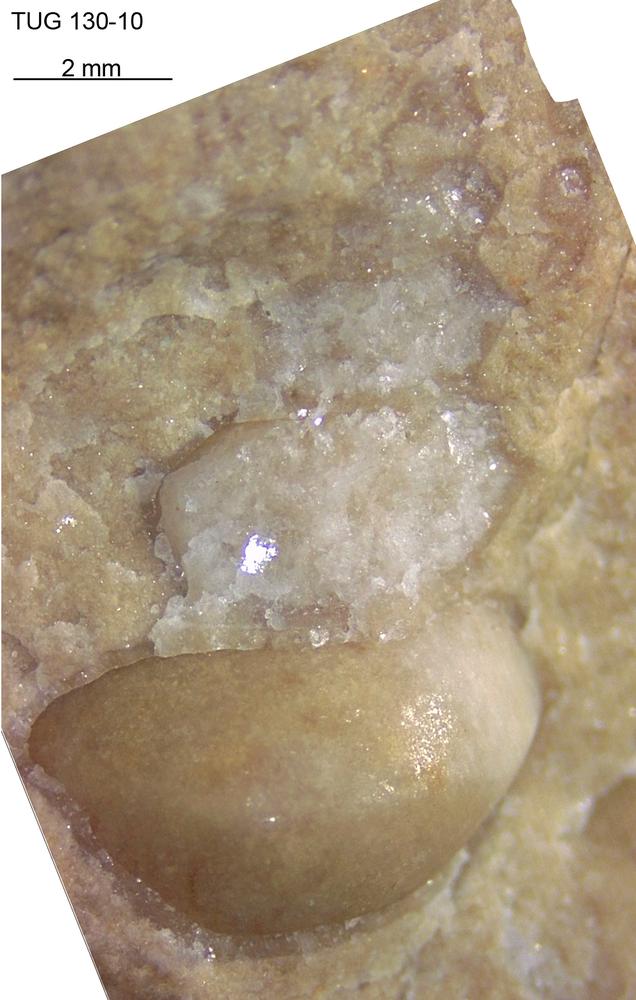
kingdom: Animalia
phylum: Mollusca
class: Gastropoda
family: Trochonematidae
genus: Trochonema
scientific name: Trochonema peraltum
